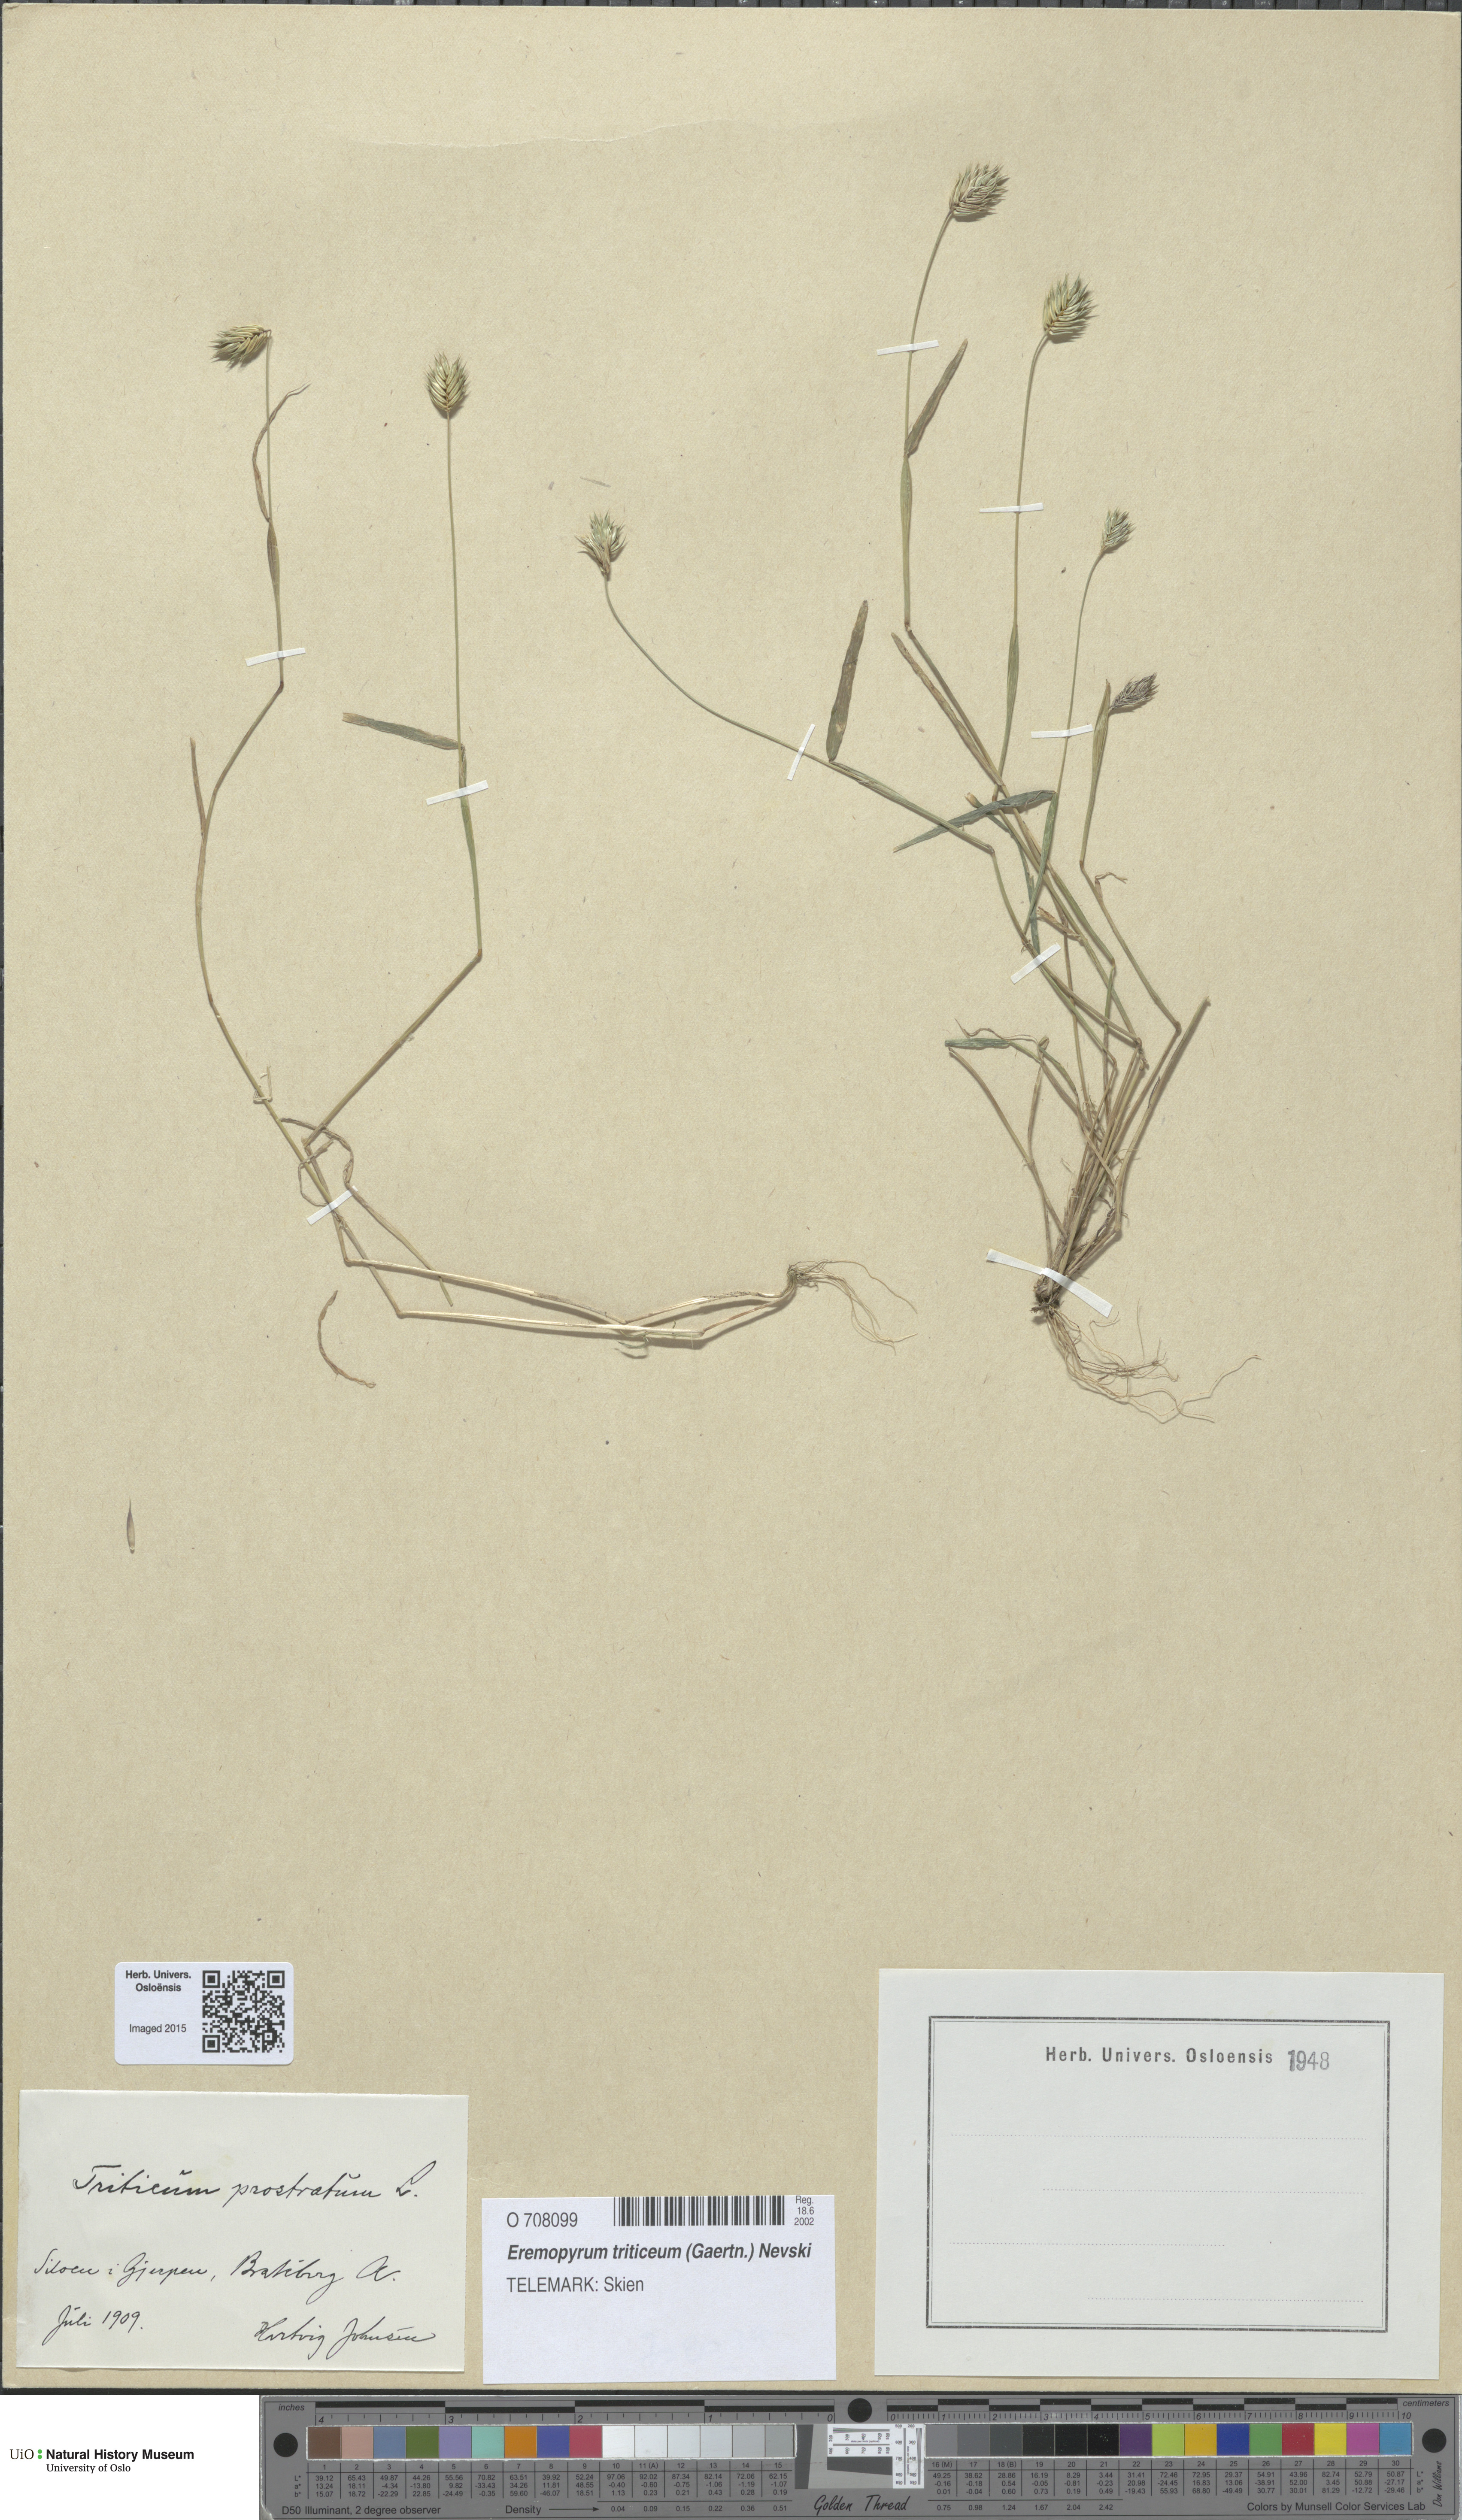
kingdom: Plantae
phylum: Tracheophyta
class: Liliopsida
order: Poales
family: Poaceae
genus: Eremopyrum
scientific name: Eremopyrum triticeum
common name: Annual wheatgrass
